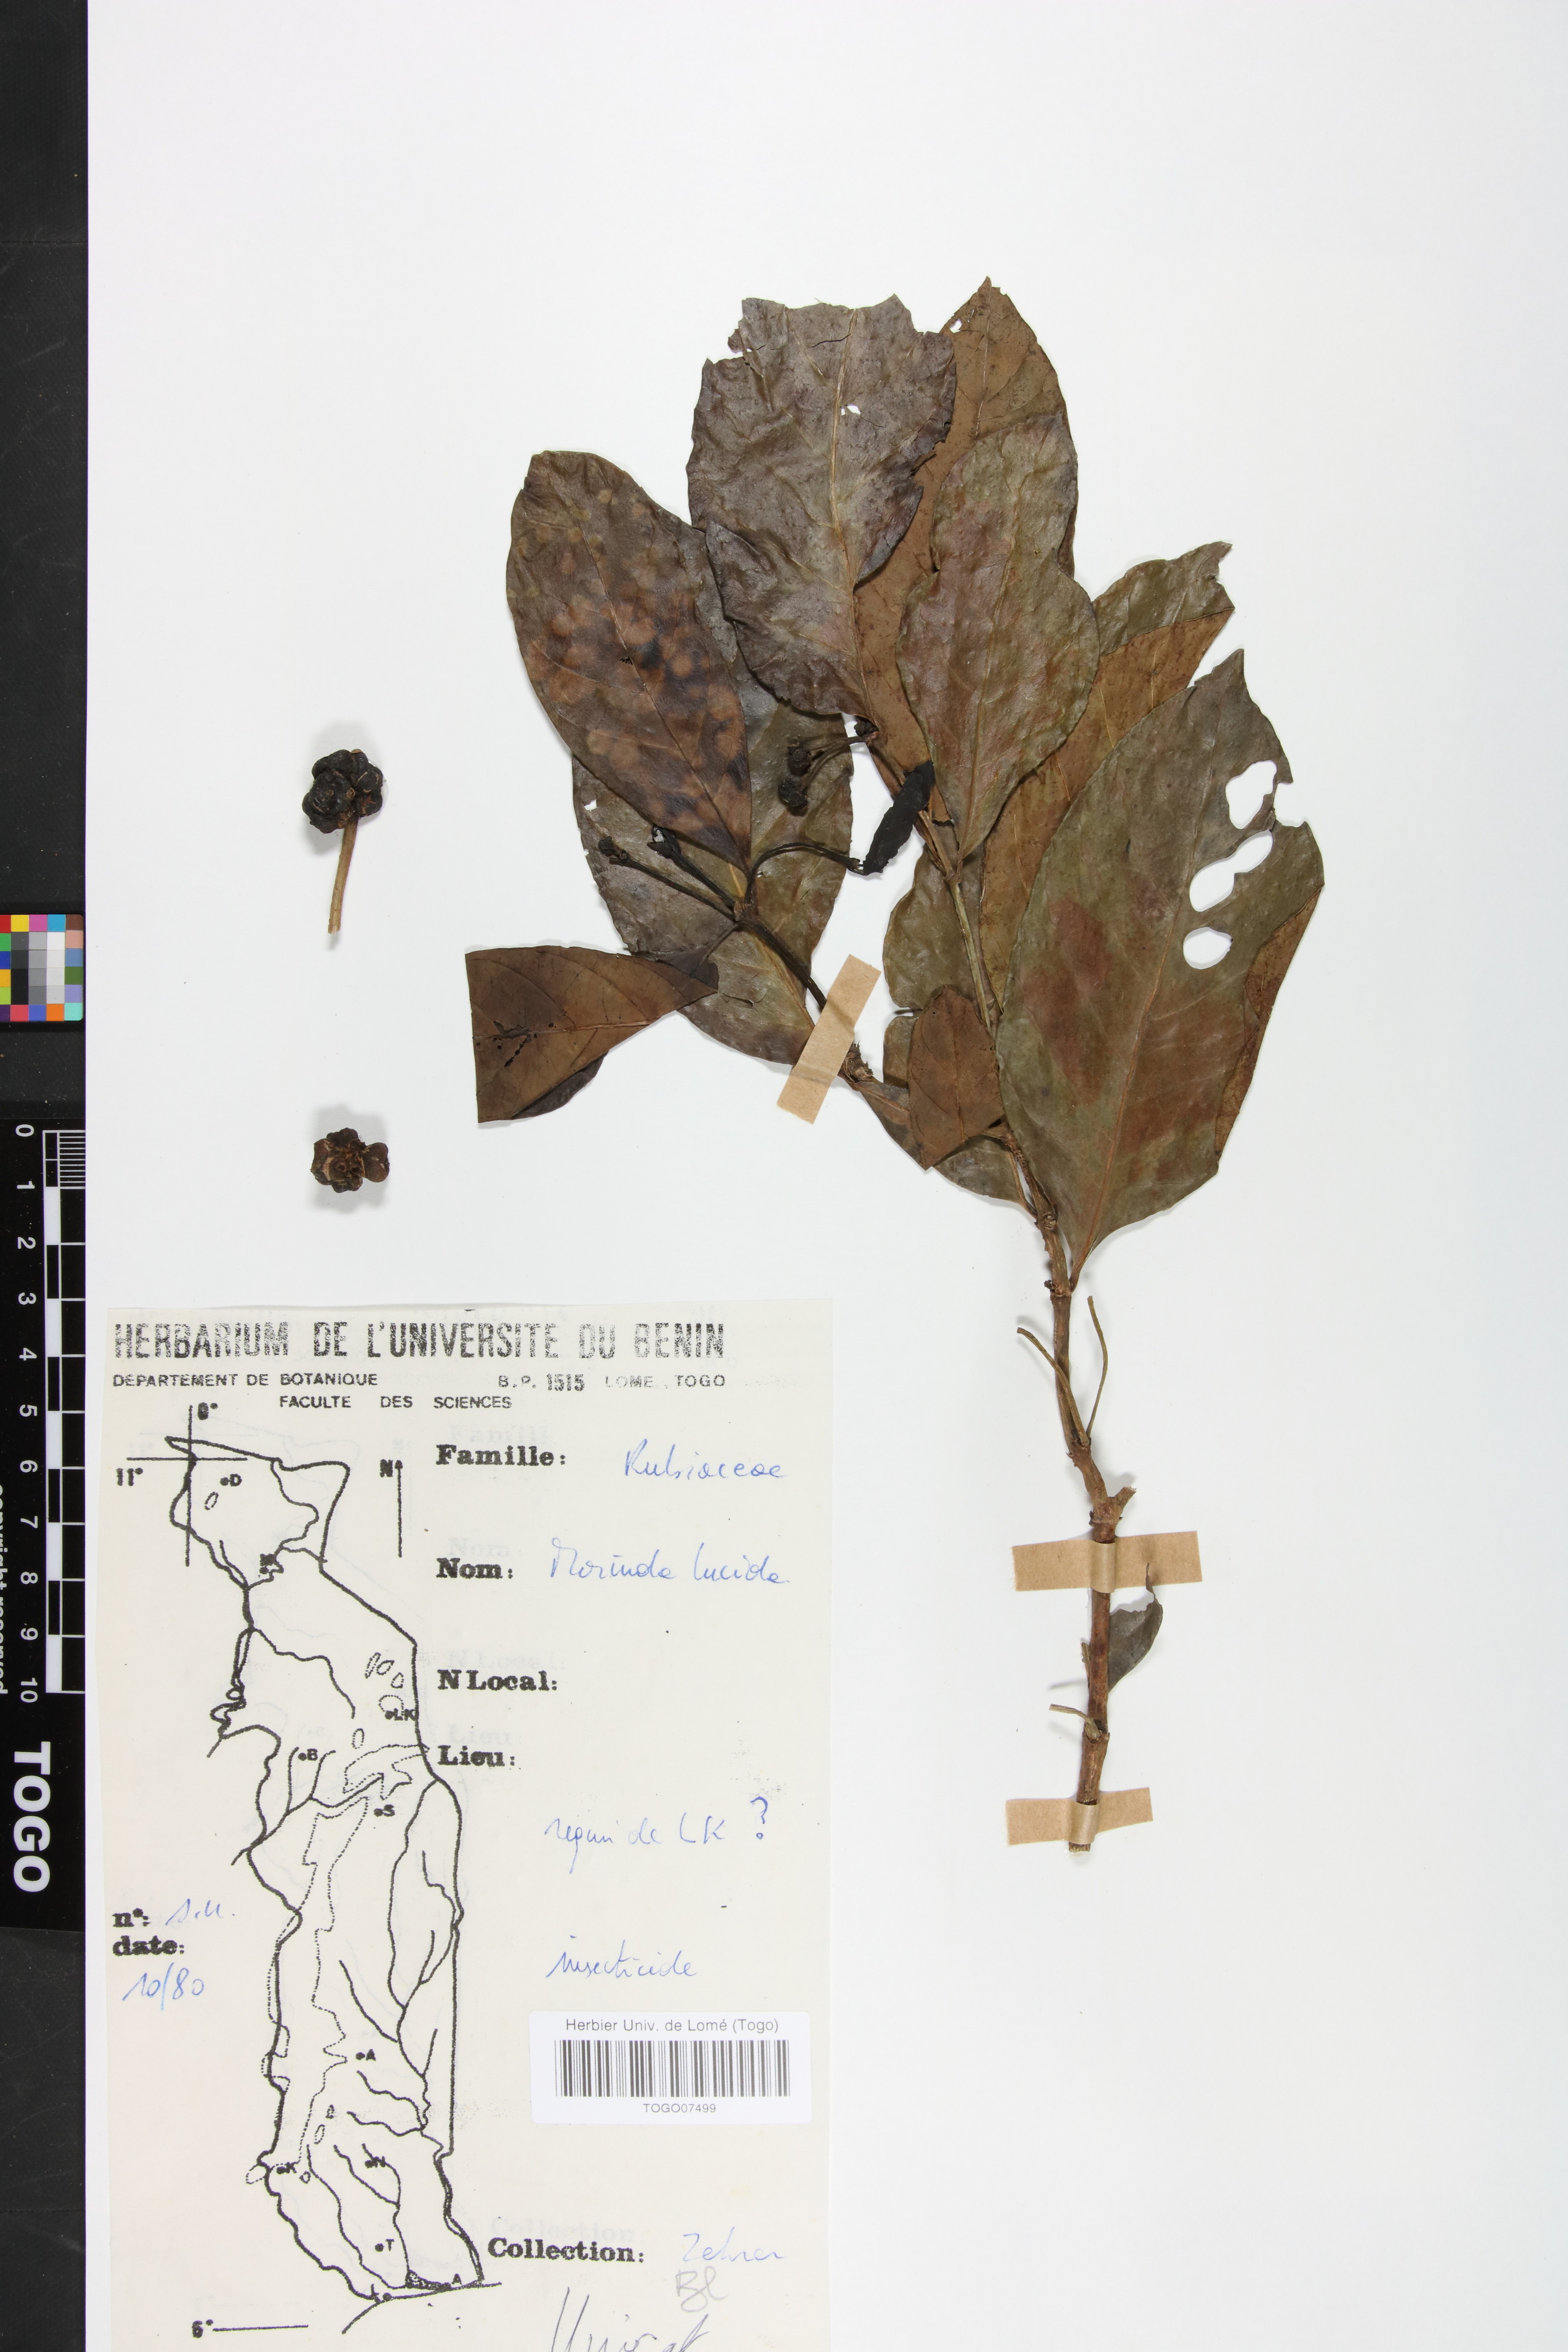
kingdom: Plantae
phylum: Tracheophyta
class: Magnoliopsida
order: Gentianales
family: Rubiaceae
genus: Morinda
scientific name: Morinda lucida
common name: Brimstonetree
